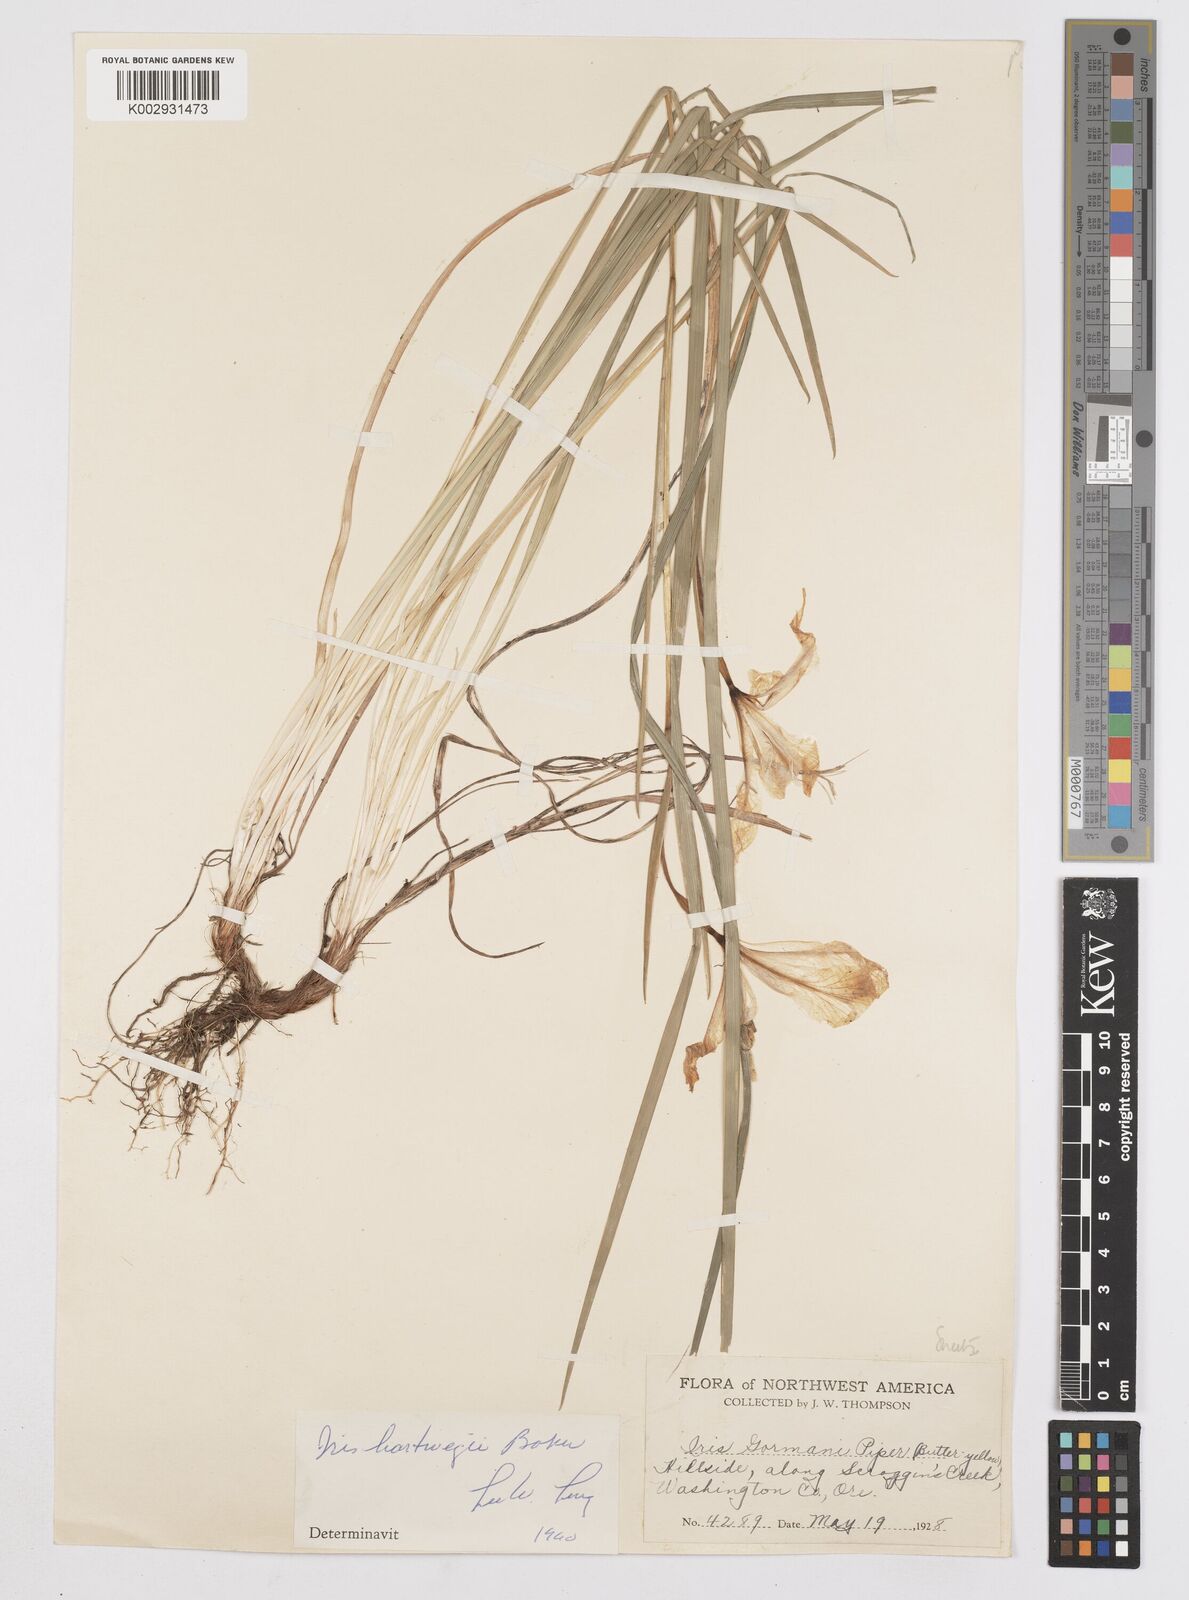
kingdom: Plantae
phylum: Tracheophyta
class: Liliopsida
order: Asparagales
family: Iridaceae
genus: Iris
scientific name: Iris hartwegii
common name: Sierra iris
